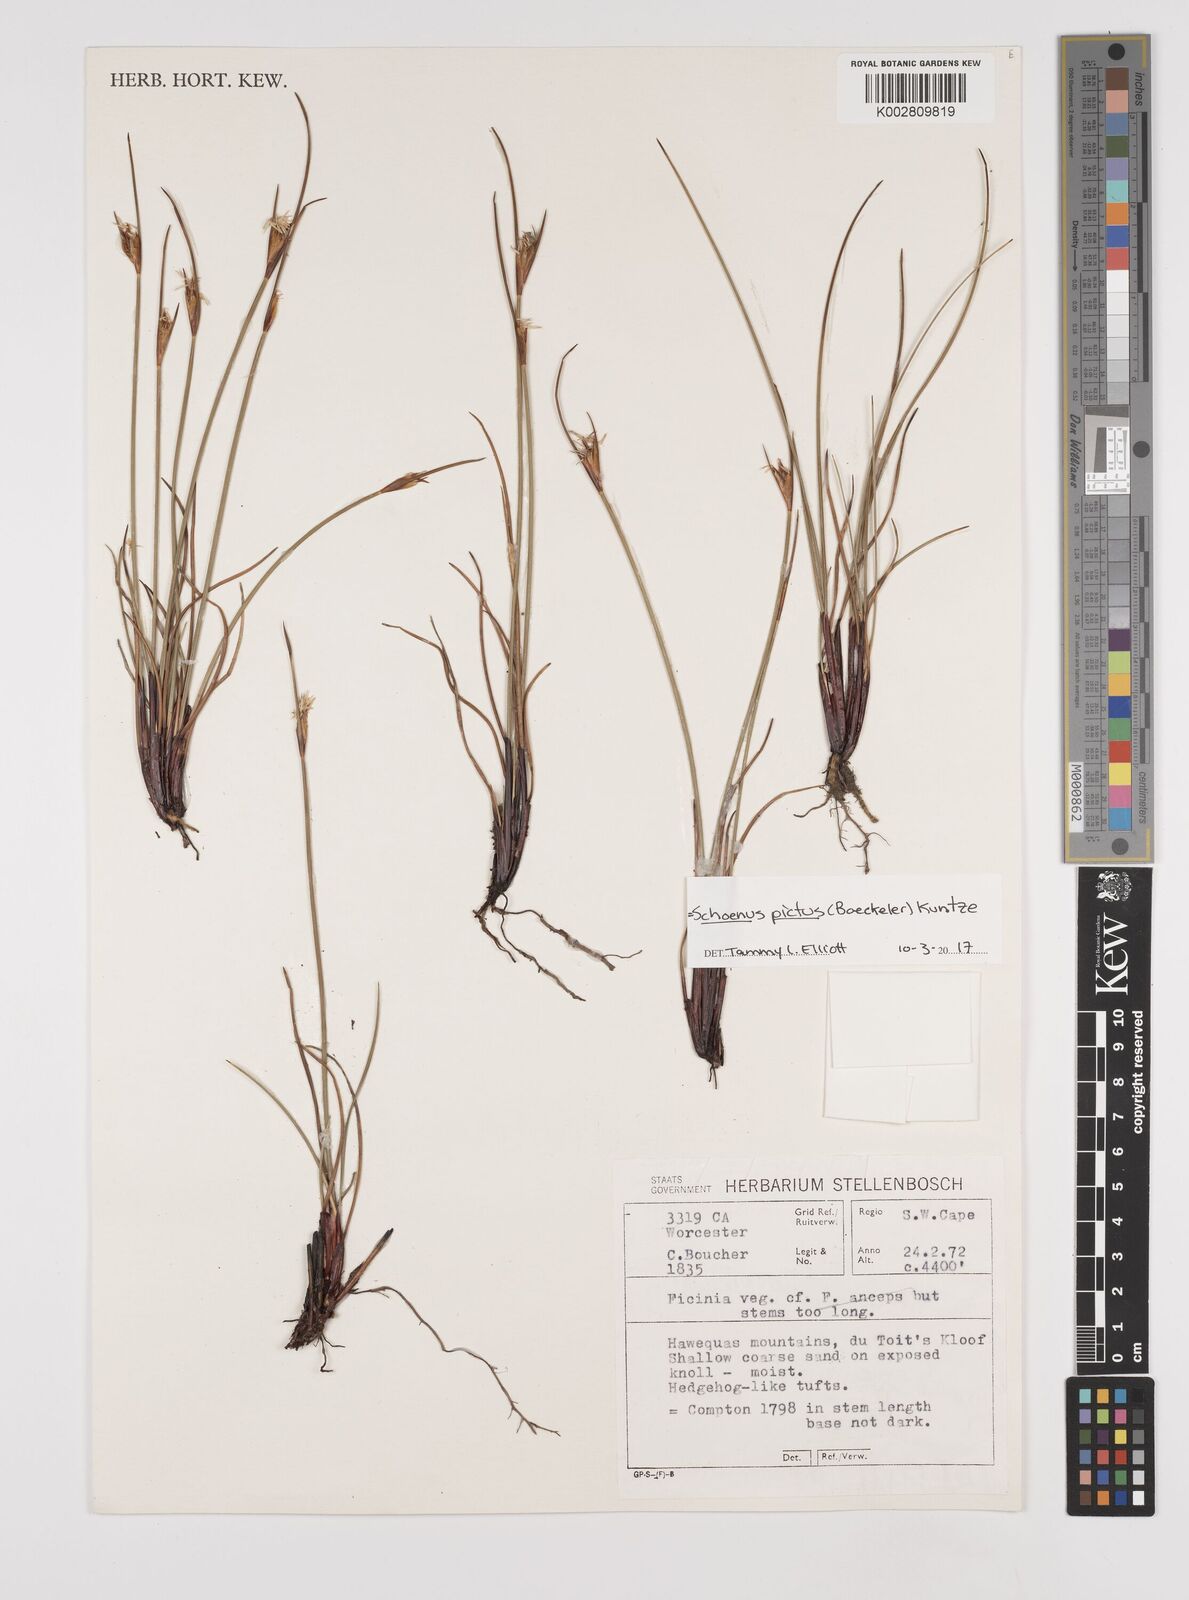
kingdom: Plantae
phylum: Tracheophyta
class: Liliopsida
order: Poales
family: Cyperaceae
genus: Schoenus
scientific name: Schoenus pictus
